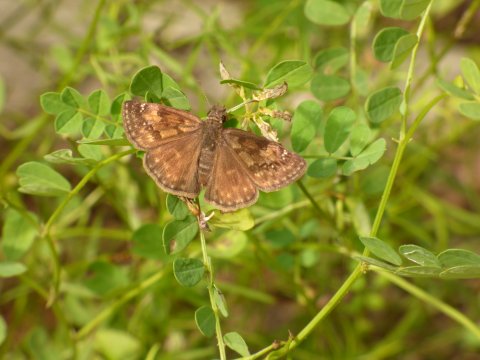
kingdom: Animalia
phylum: Arthropoda
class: Insecta
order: Lepidoptera
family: Hesperiidae
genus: Gesta
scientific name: Gesta
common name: Horace's Duskywing
